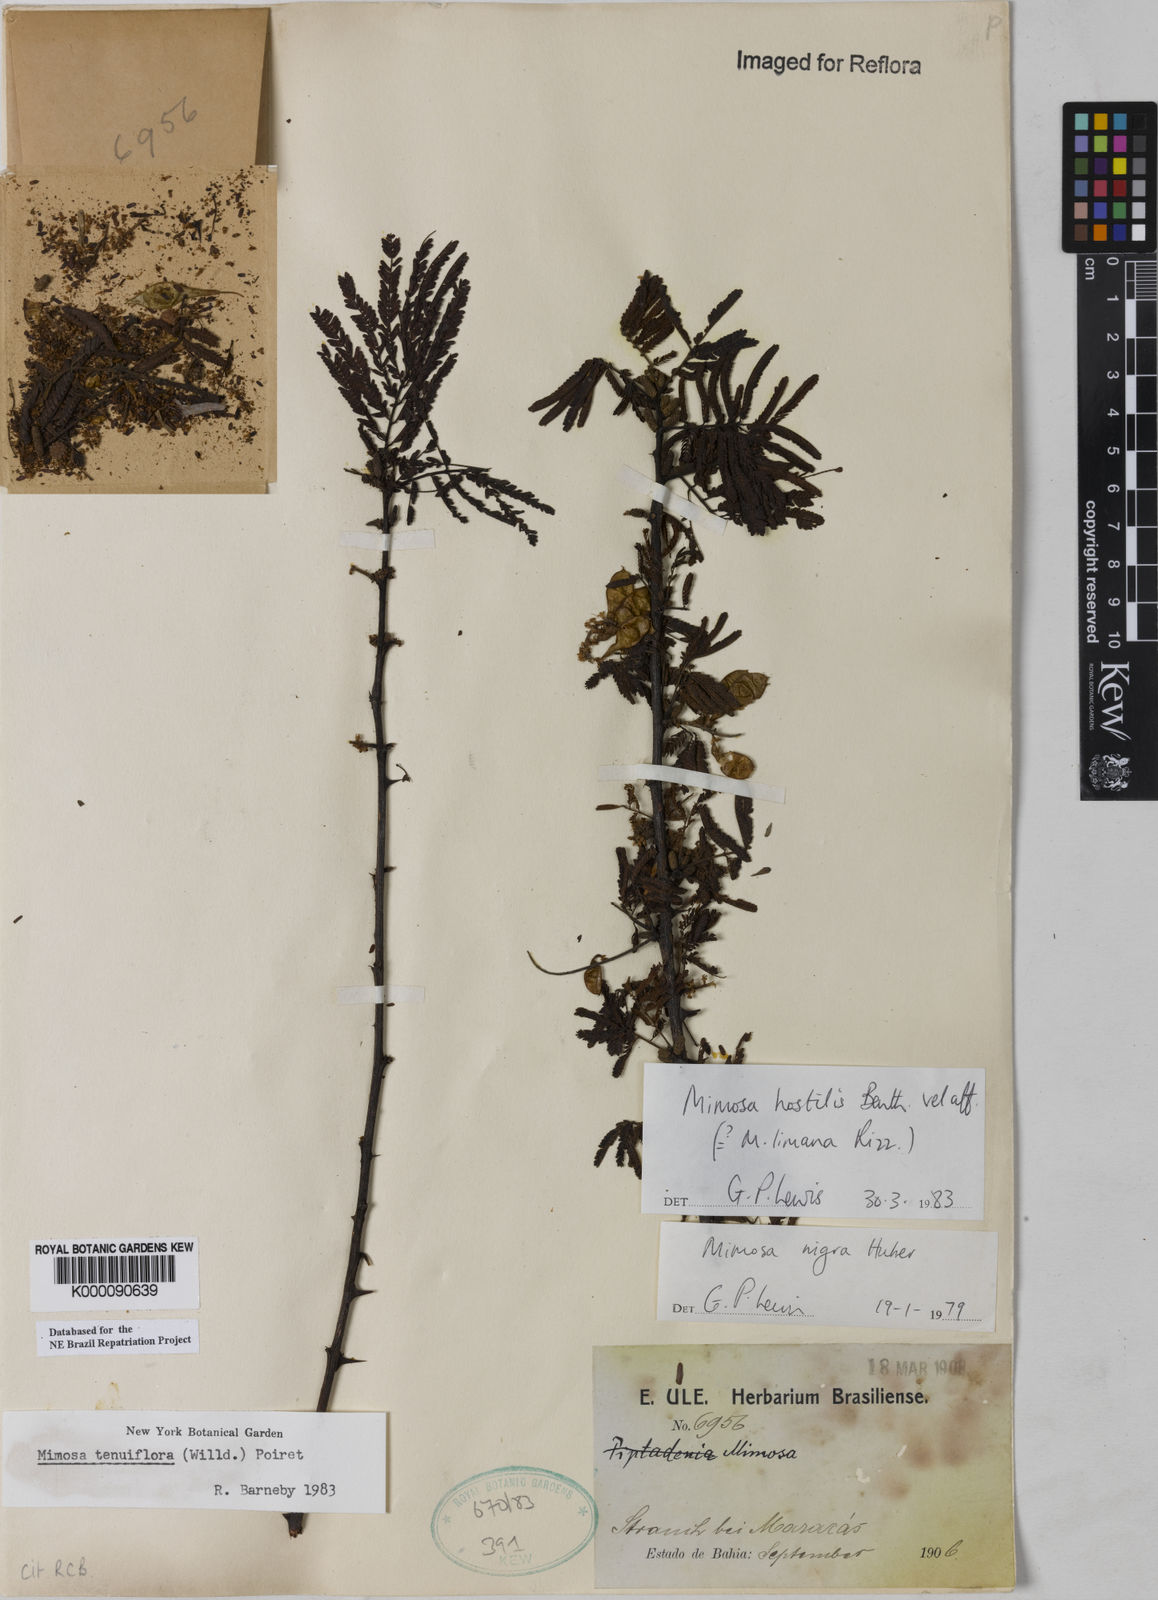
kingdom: Plantae
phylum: Tracheophyta
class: Magnoliopsida
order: Fabales
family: Fabaceae
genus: Mimosa
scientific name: Mimosa tenuiflora
